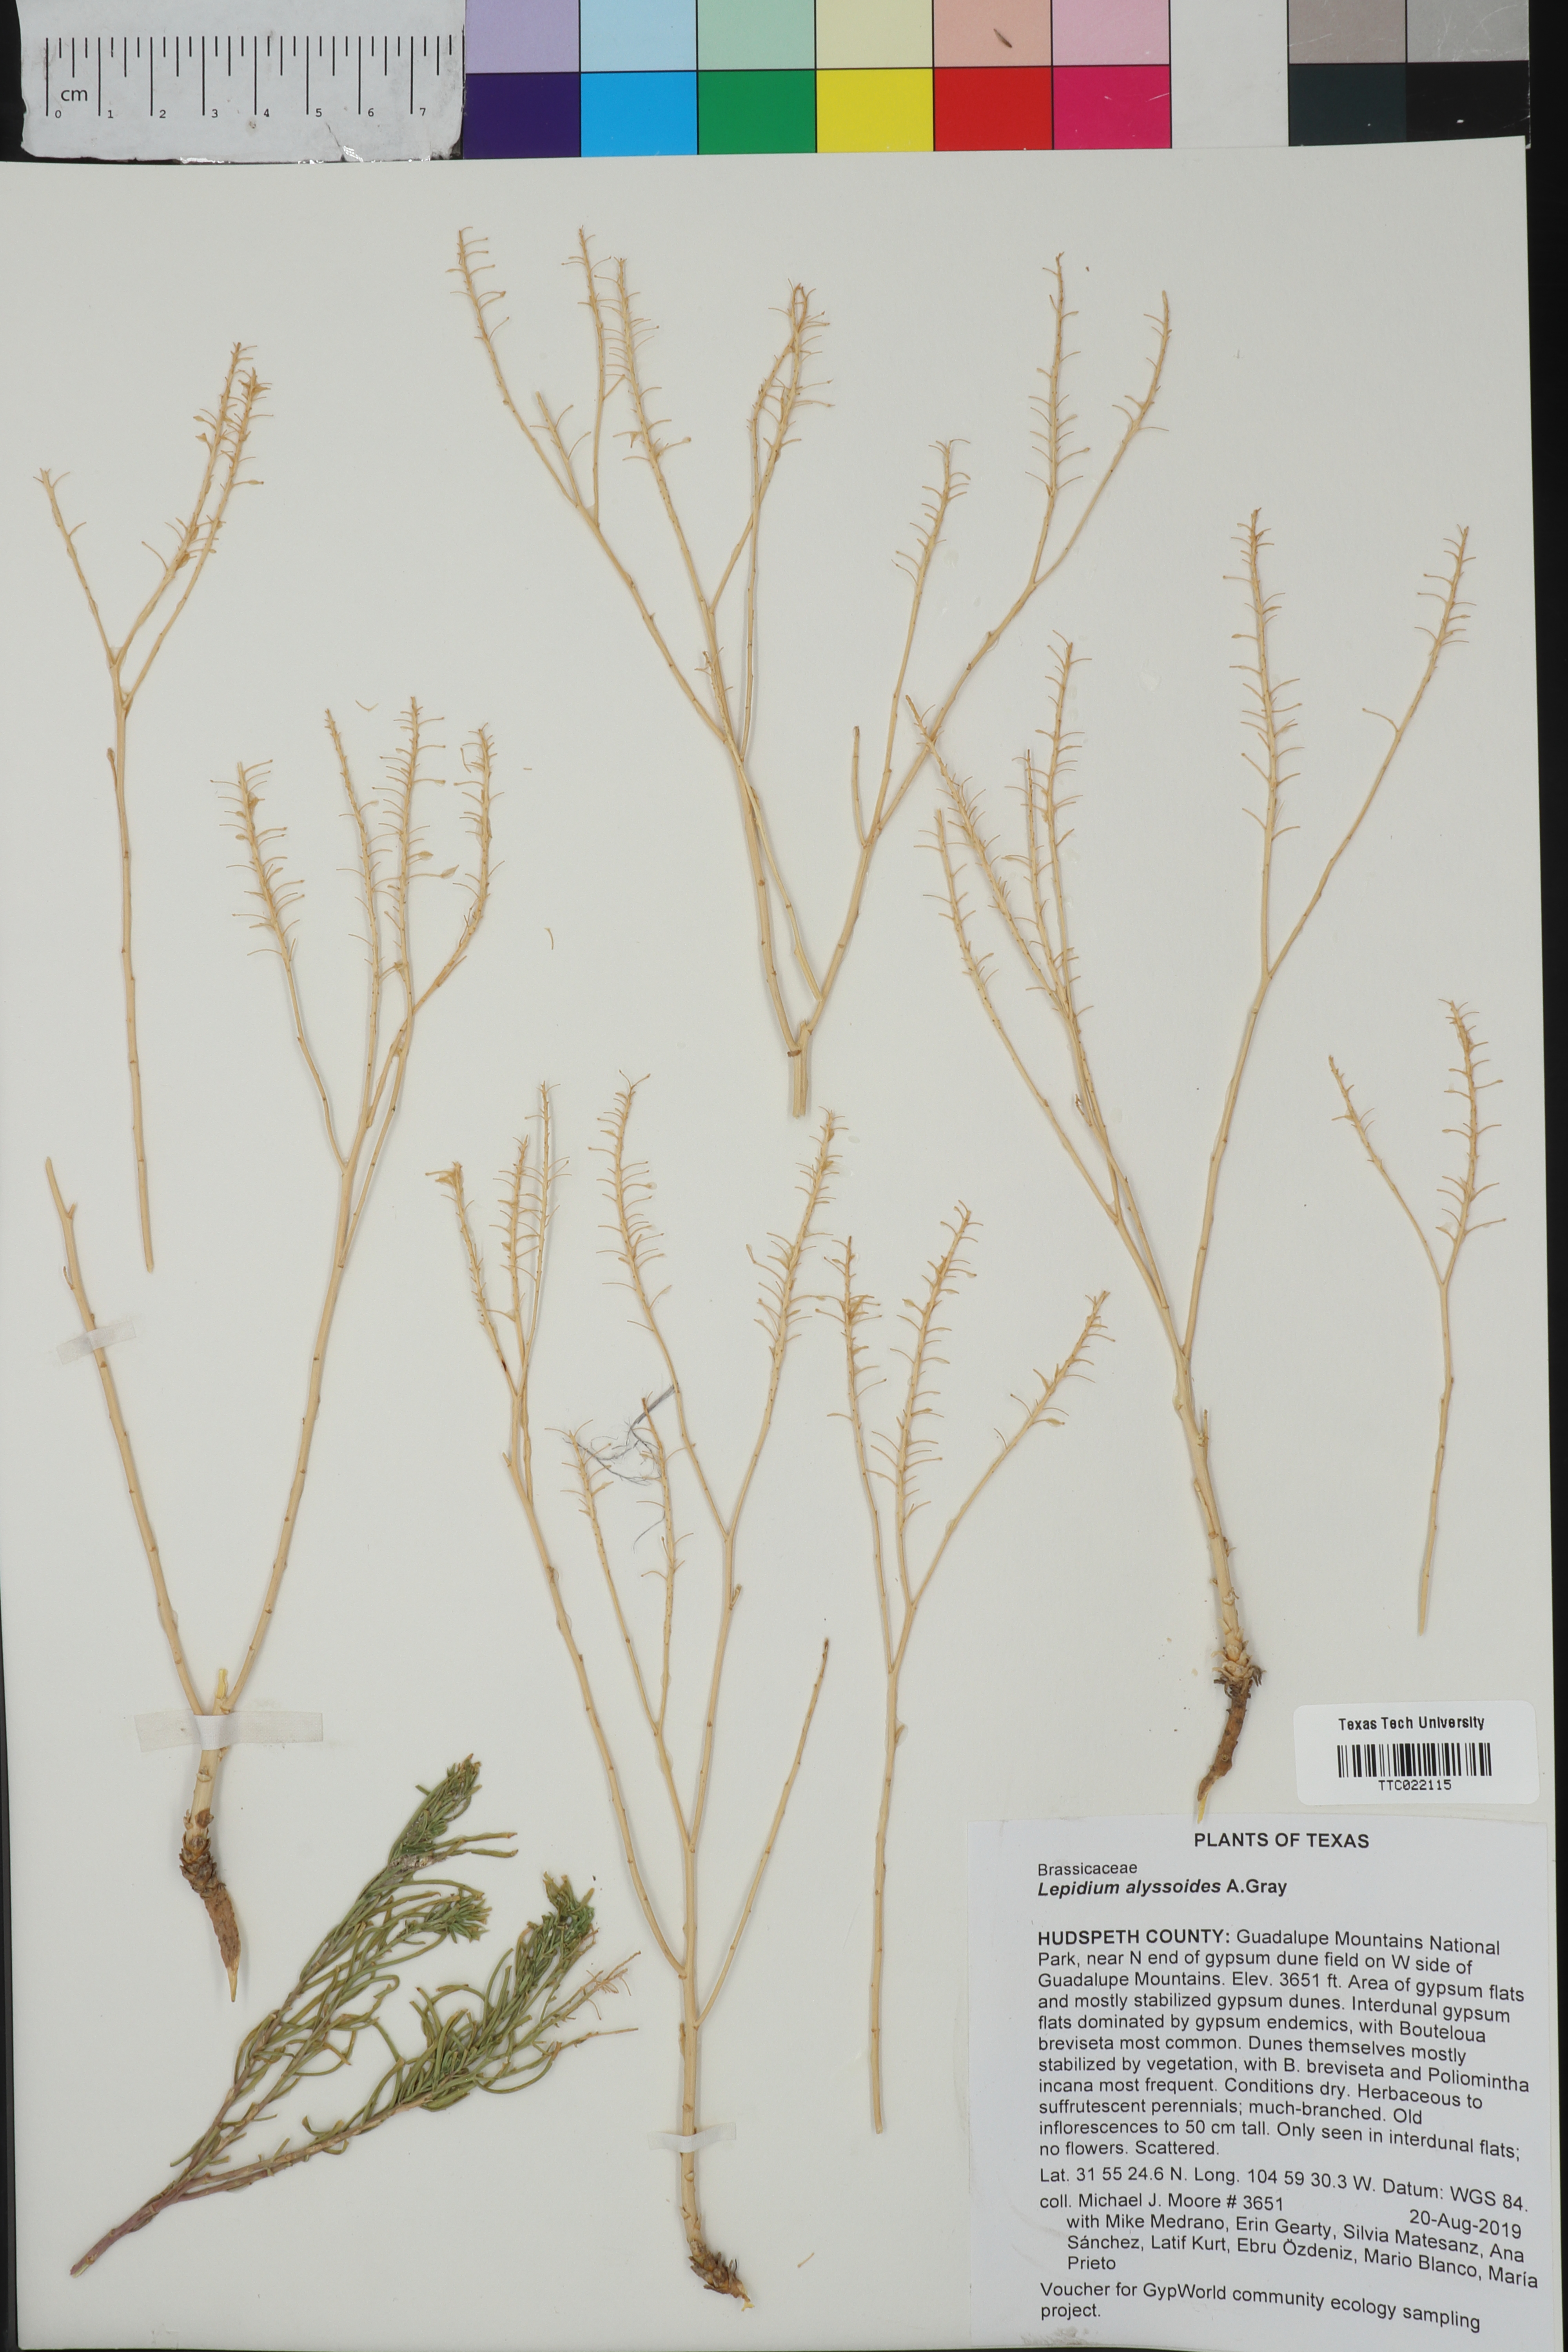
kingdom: Plantae
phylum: Tracheophyta
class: Magnoliopsida
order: Brassicales
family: Brassicaceae
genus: Lepidium
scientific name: Lepidium alyssoides
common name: Mesa pepperweed
